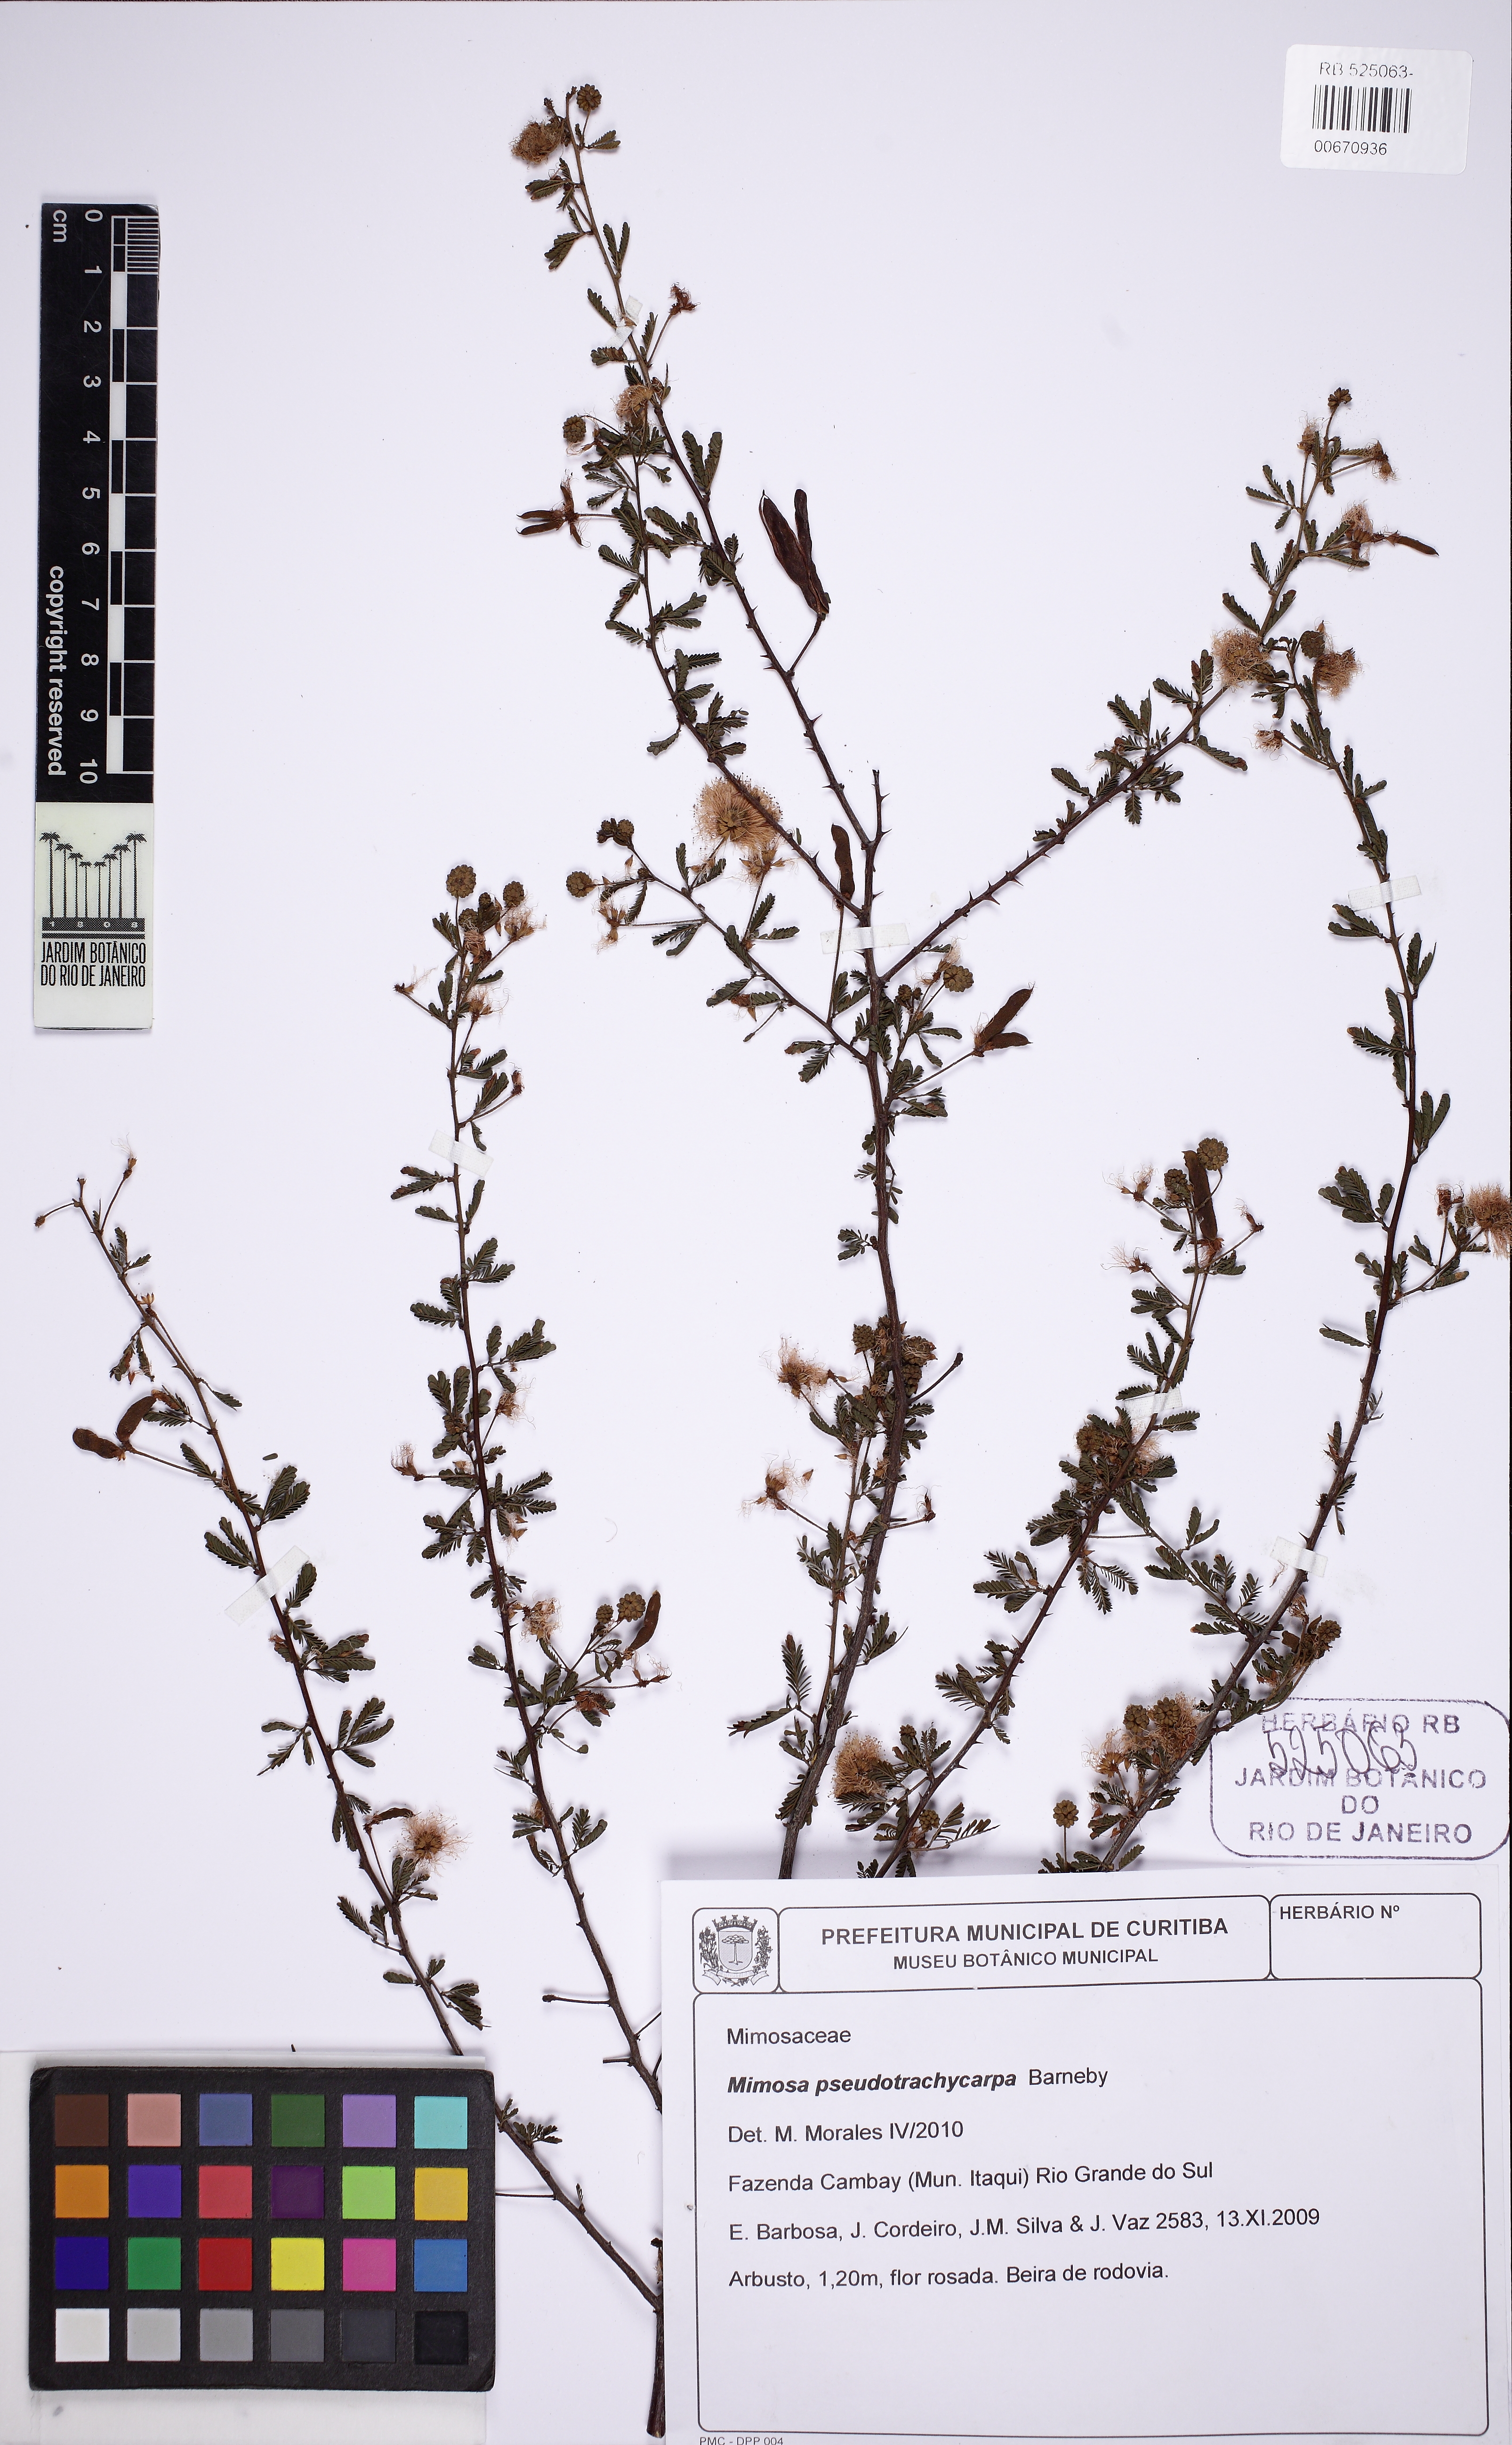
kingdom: Plantae
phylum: Tracheophyta
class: Magnoliopsida
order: Fabales
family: Fabaceae
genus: Mimosa
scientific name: Mimosa pseudotrachycarpa
